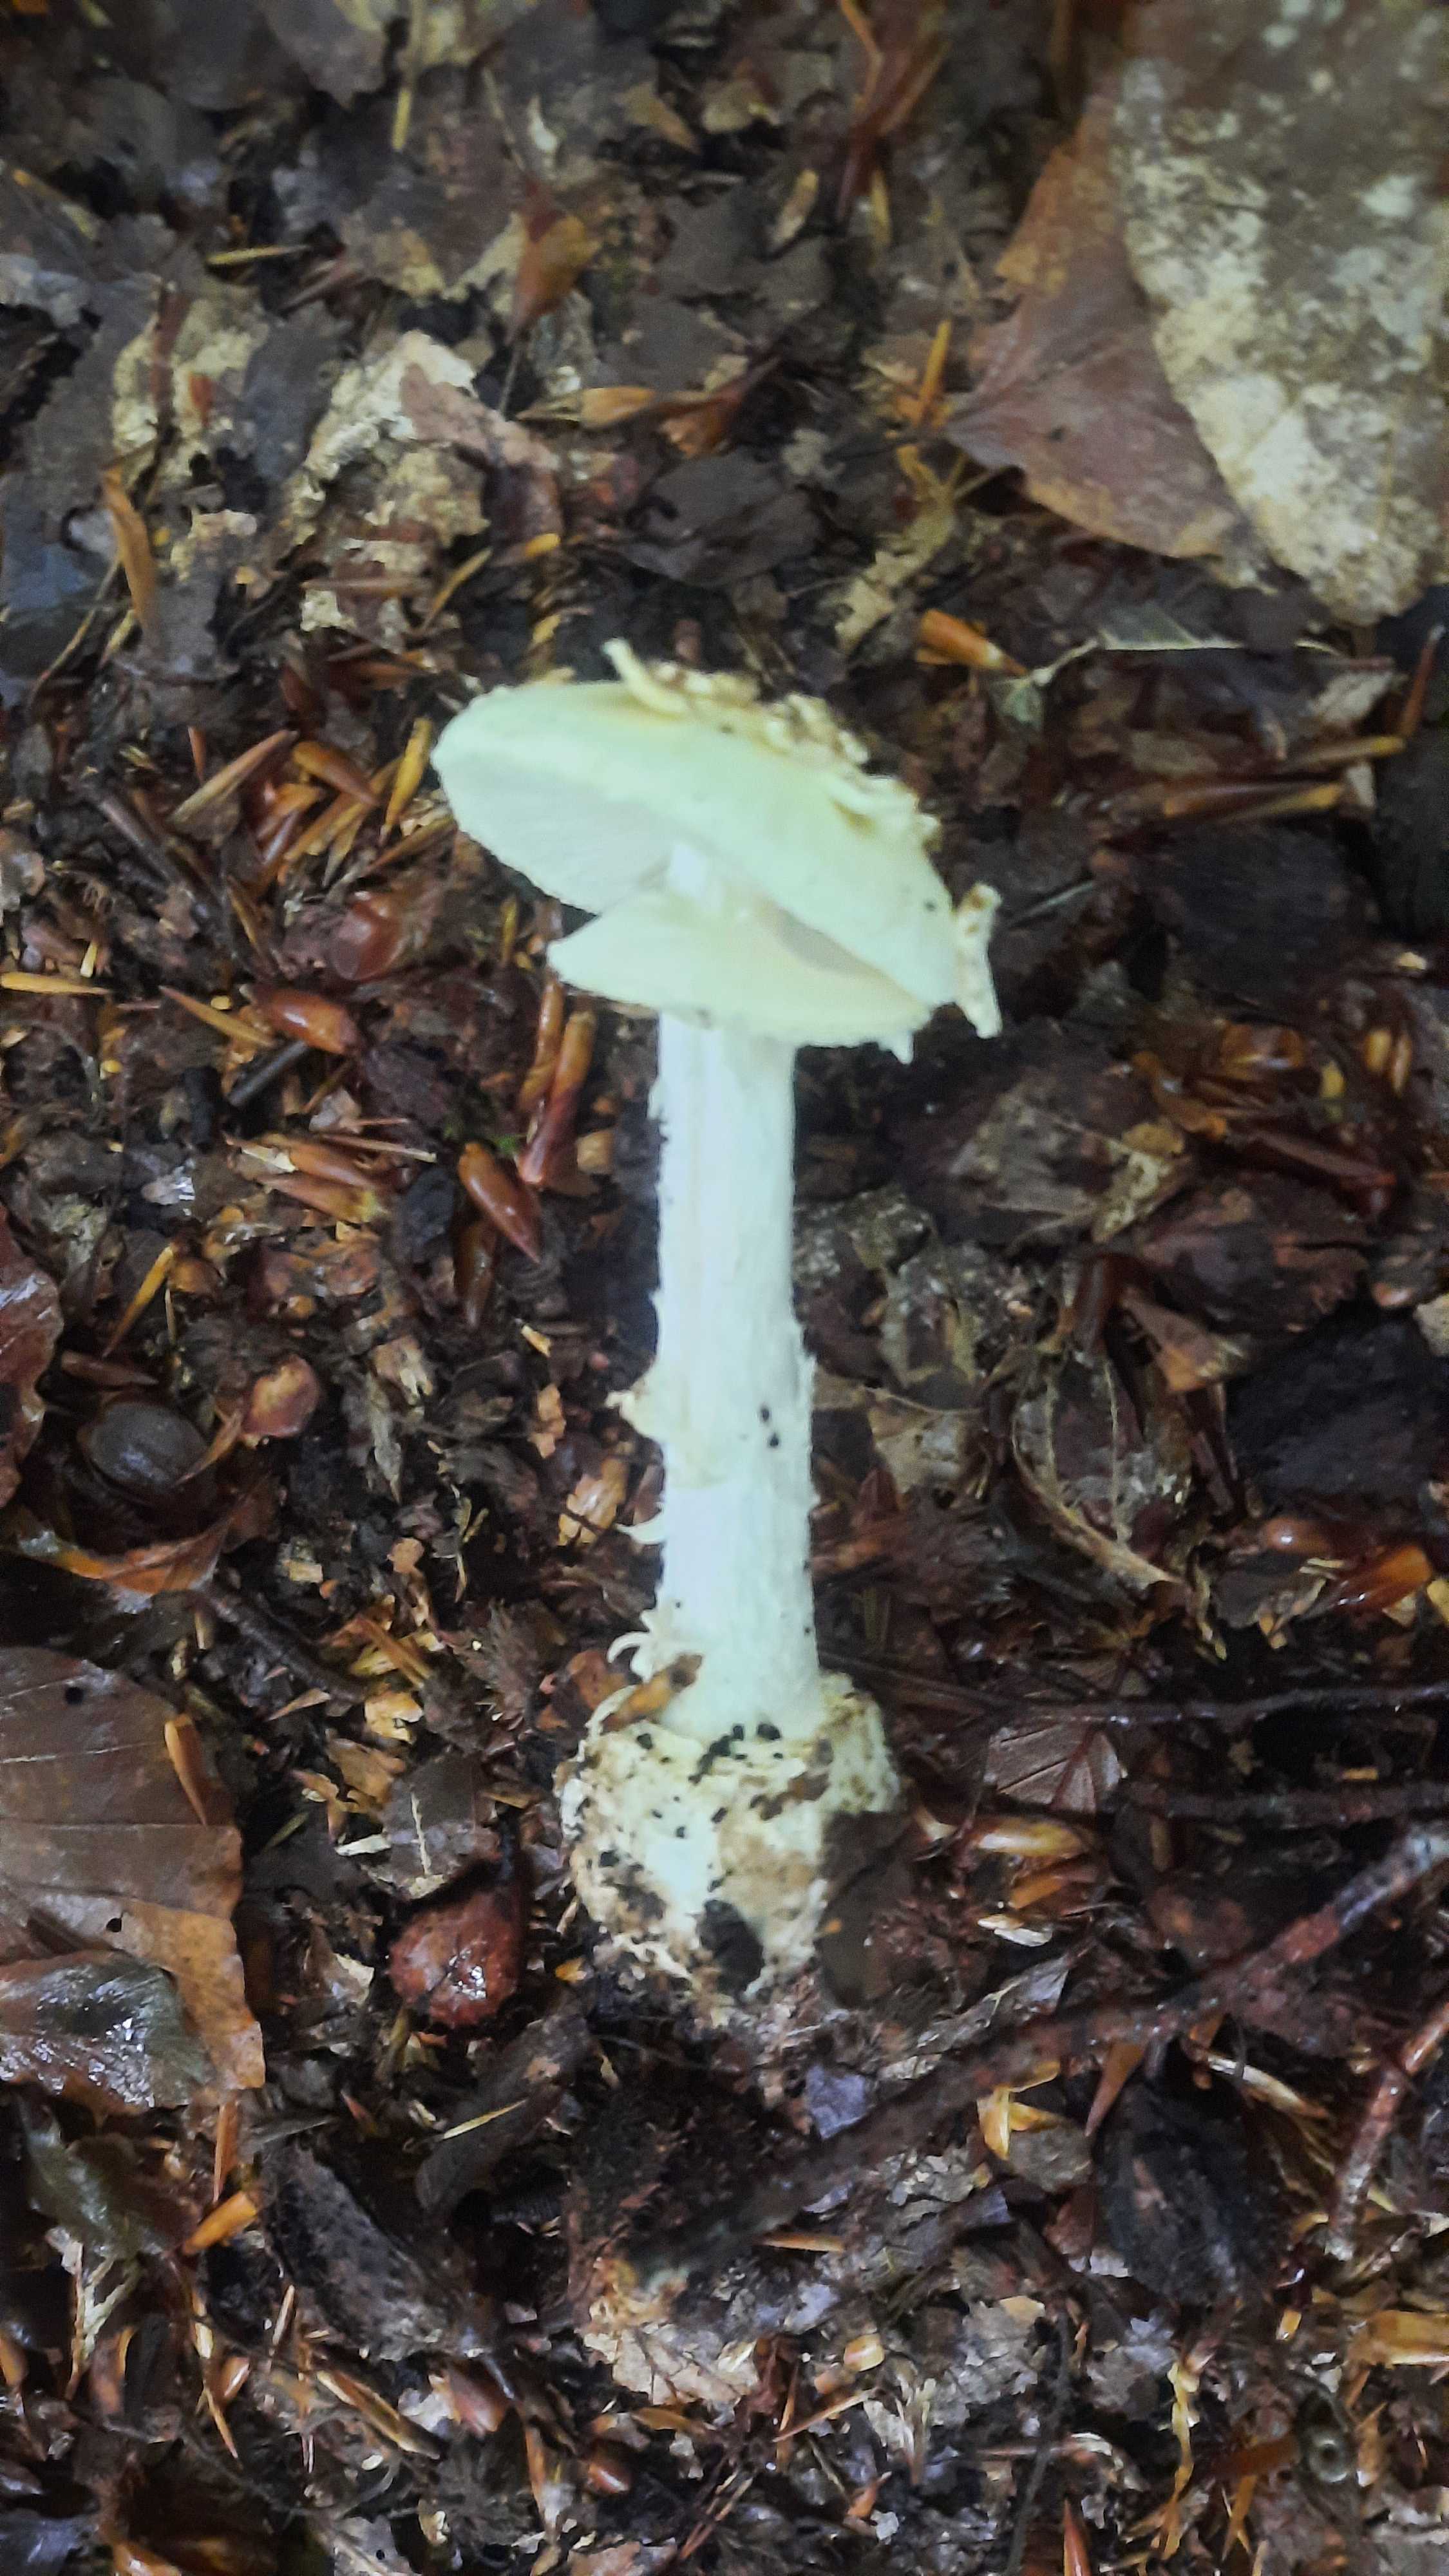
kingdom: Fungi
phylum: Basidiomycota
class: Agaricomycetes
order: Agaricales
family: Amanitaceae
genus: Amanita
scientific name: Amanita citrina
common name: kugleknoldet fluesvamp
